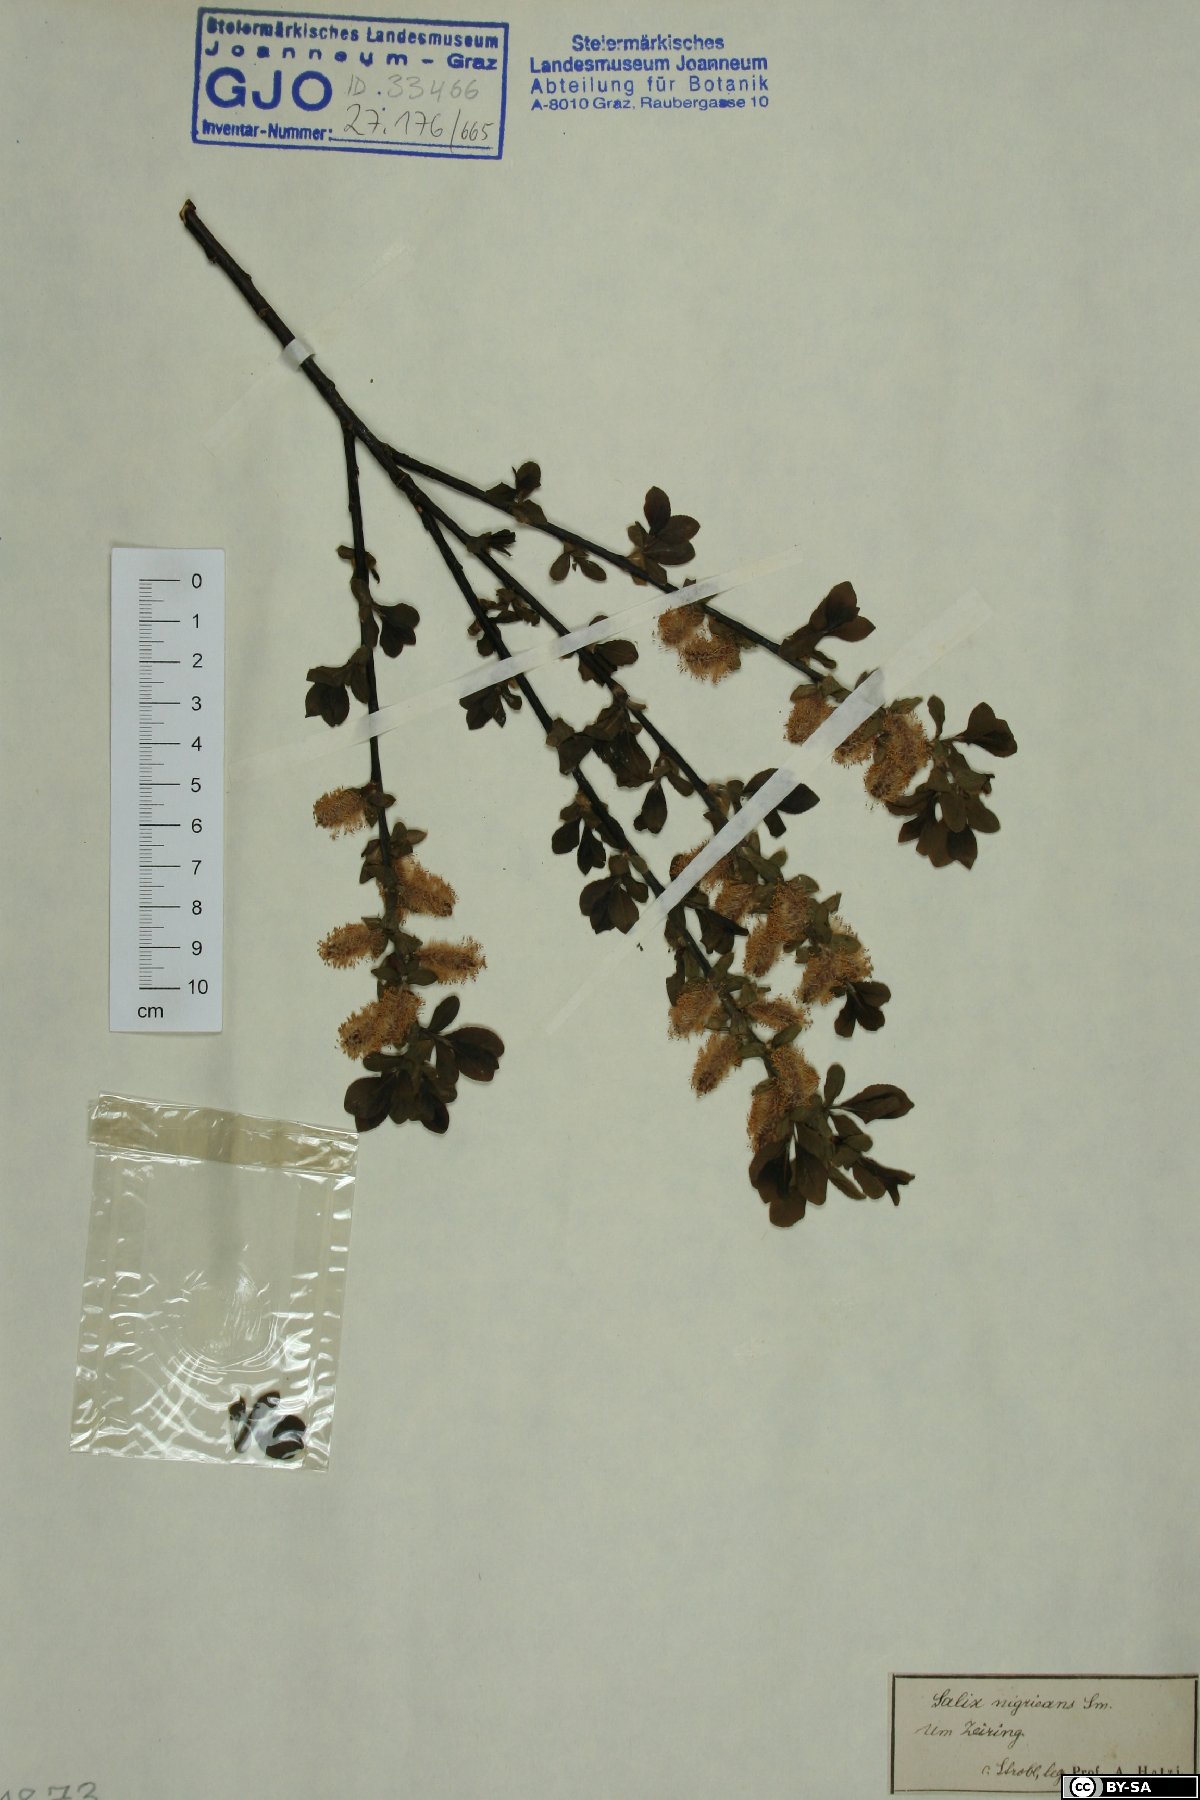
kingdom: Plantae
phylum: Tracheophyta
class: Magnoliopsida
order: Malpighiales
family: Salicaceae
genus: Salix
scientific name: Salix myrsinifolia
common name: Dark-leaved willow
